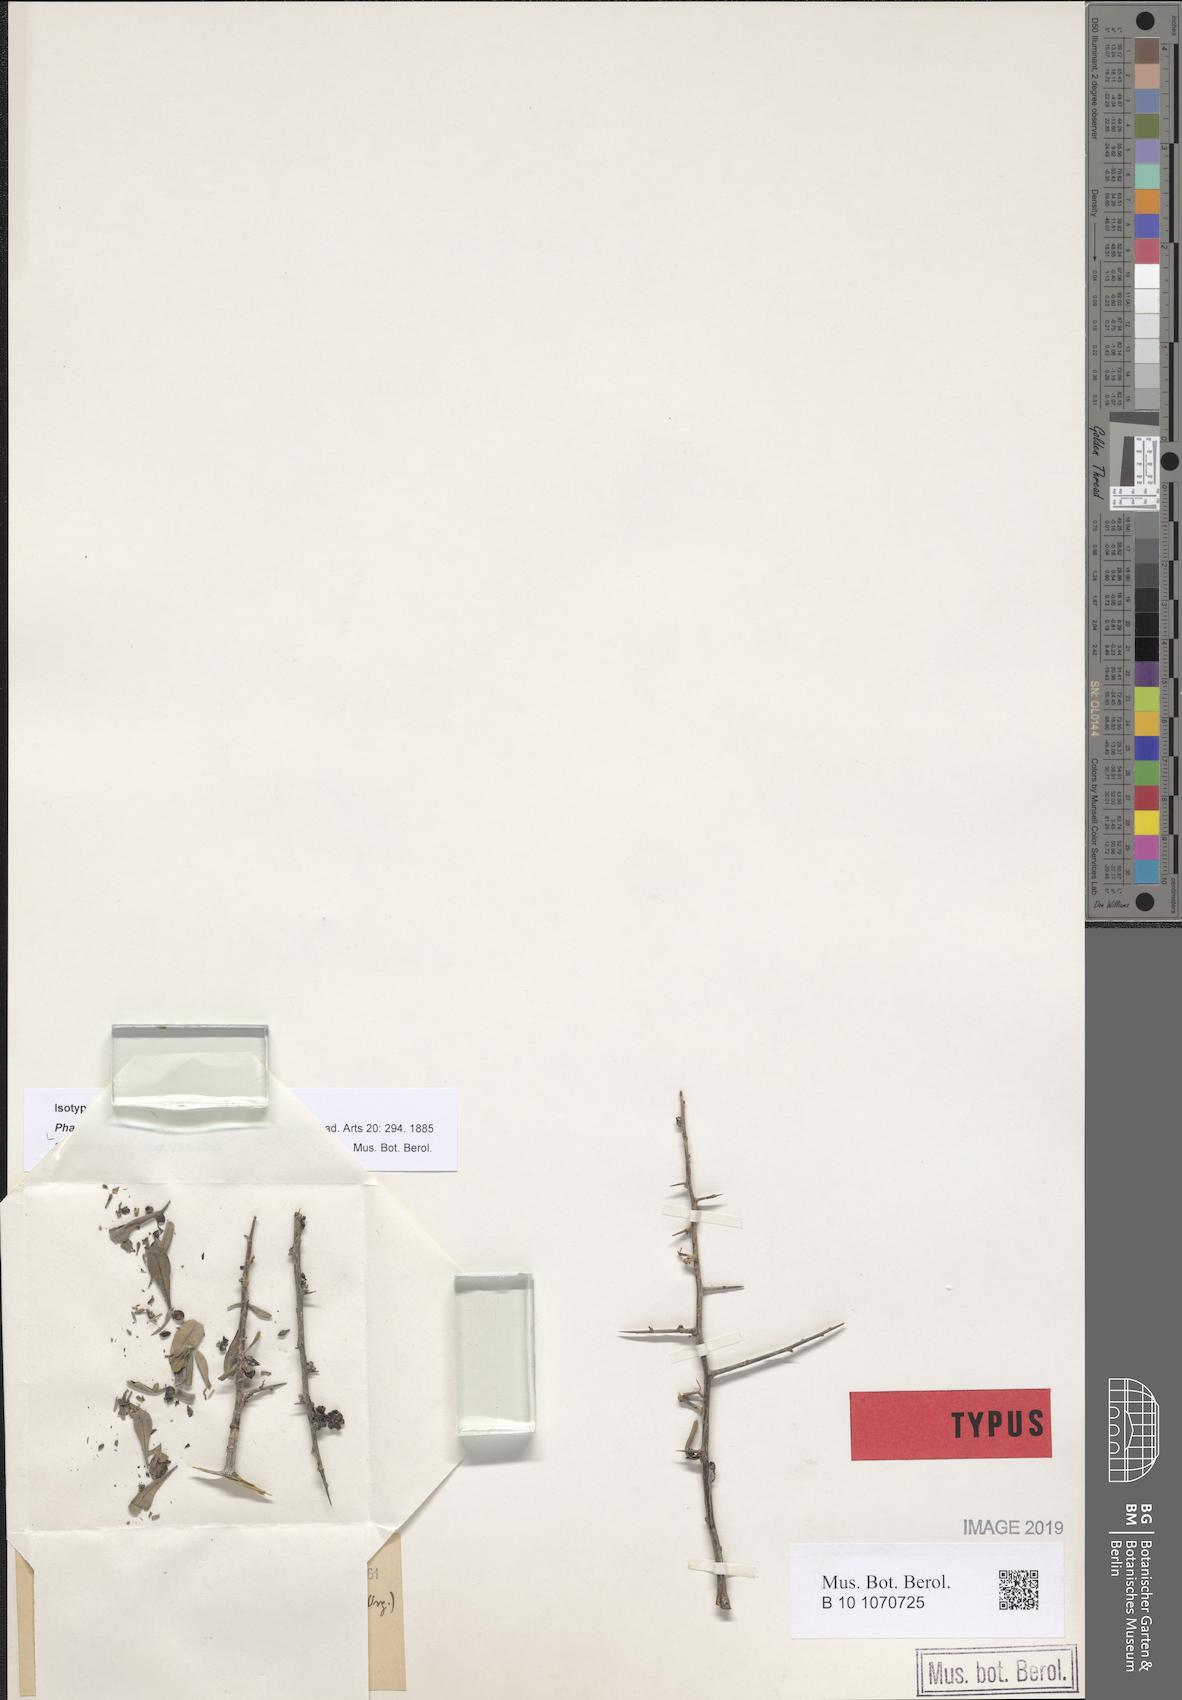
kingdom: Plantae
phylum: Tracheophyta
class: Magnoliopsida
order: Caryophyllales
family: Achatocarpaceae
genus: Phaulothamnus
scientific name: Phaulothamnus spinescens
